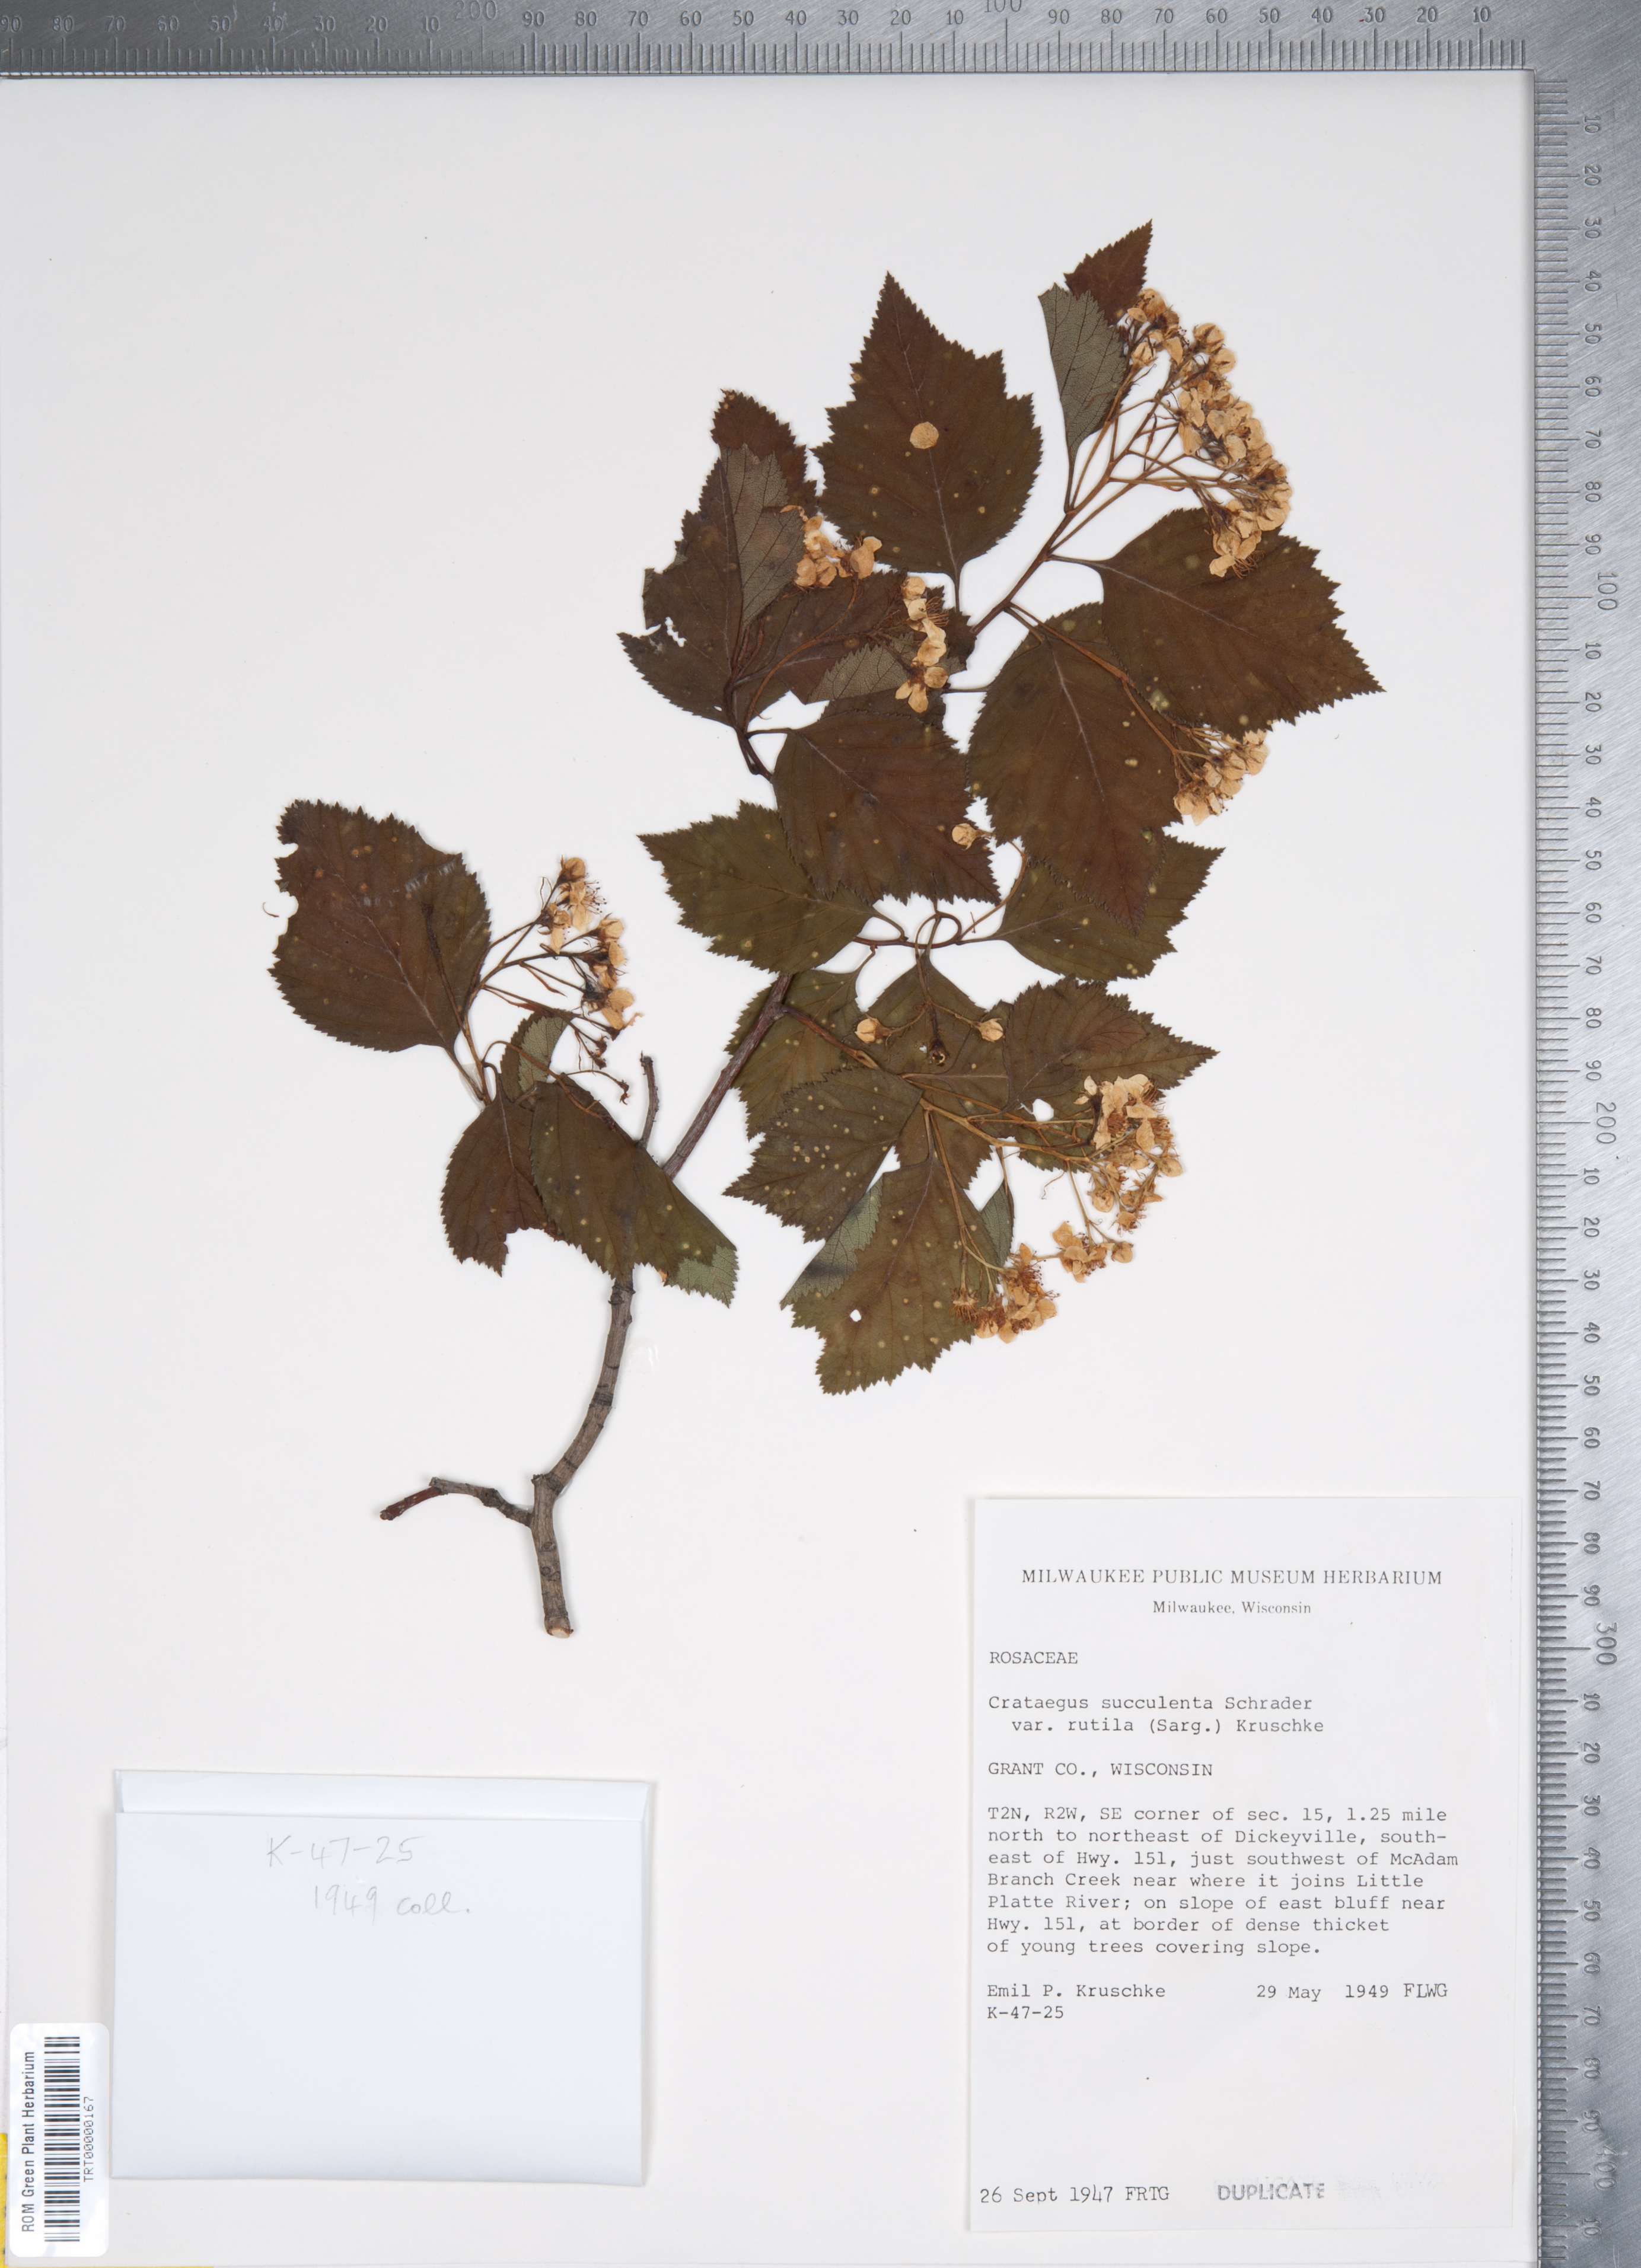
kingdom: Plantae
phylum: Tracheophyta
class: Magnoliopsida
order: Rosales
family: Rosaceae
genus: Crataegus
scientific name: Crataegus succulenta
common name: Fleshy hawthorn
